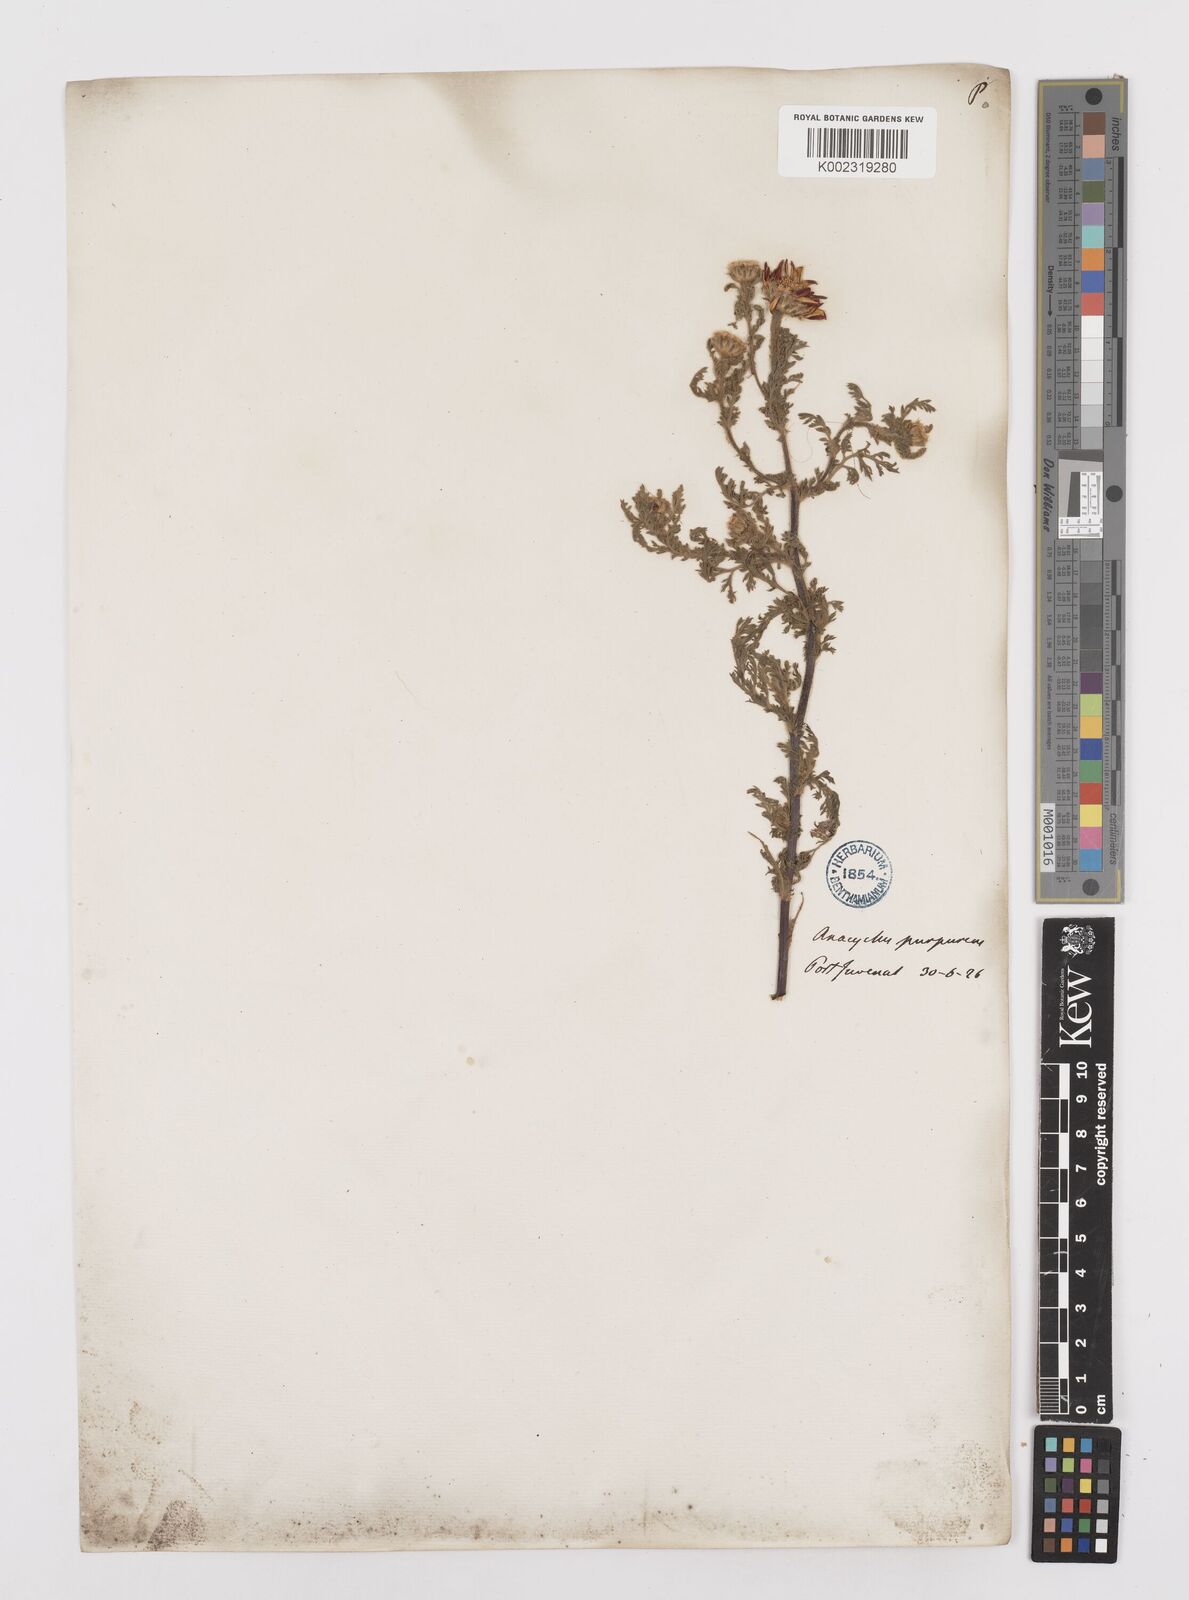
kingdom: Plantae
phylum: Tracheophyta
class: Magnoliopsida
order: Asterales
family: Asteraceae
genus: Anacyclus
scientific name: Anacyclus radiatus
